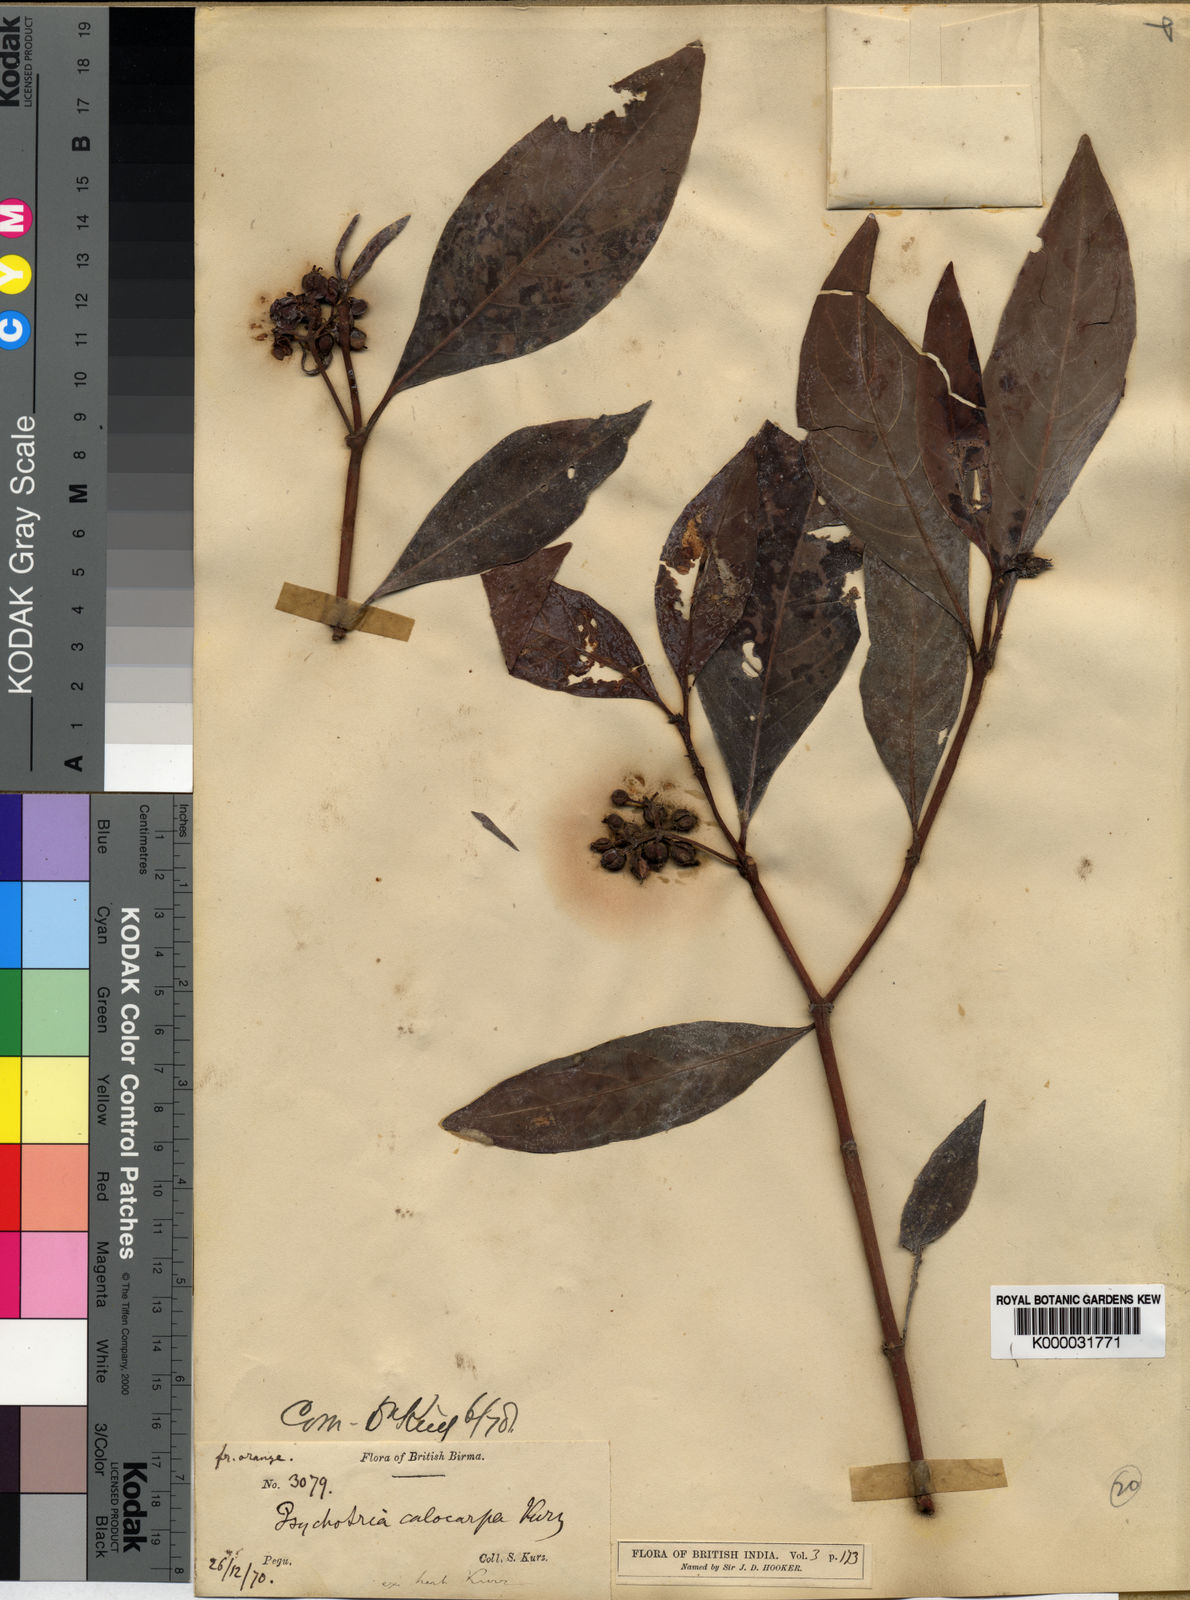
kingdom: Plantae
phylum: Tracheophyta
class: Magnoliopsida
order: Gentianales
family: Rubiaceae
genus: Psychotria
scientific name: Psychotria calocarpa
